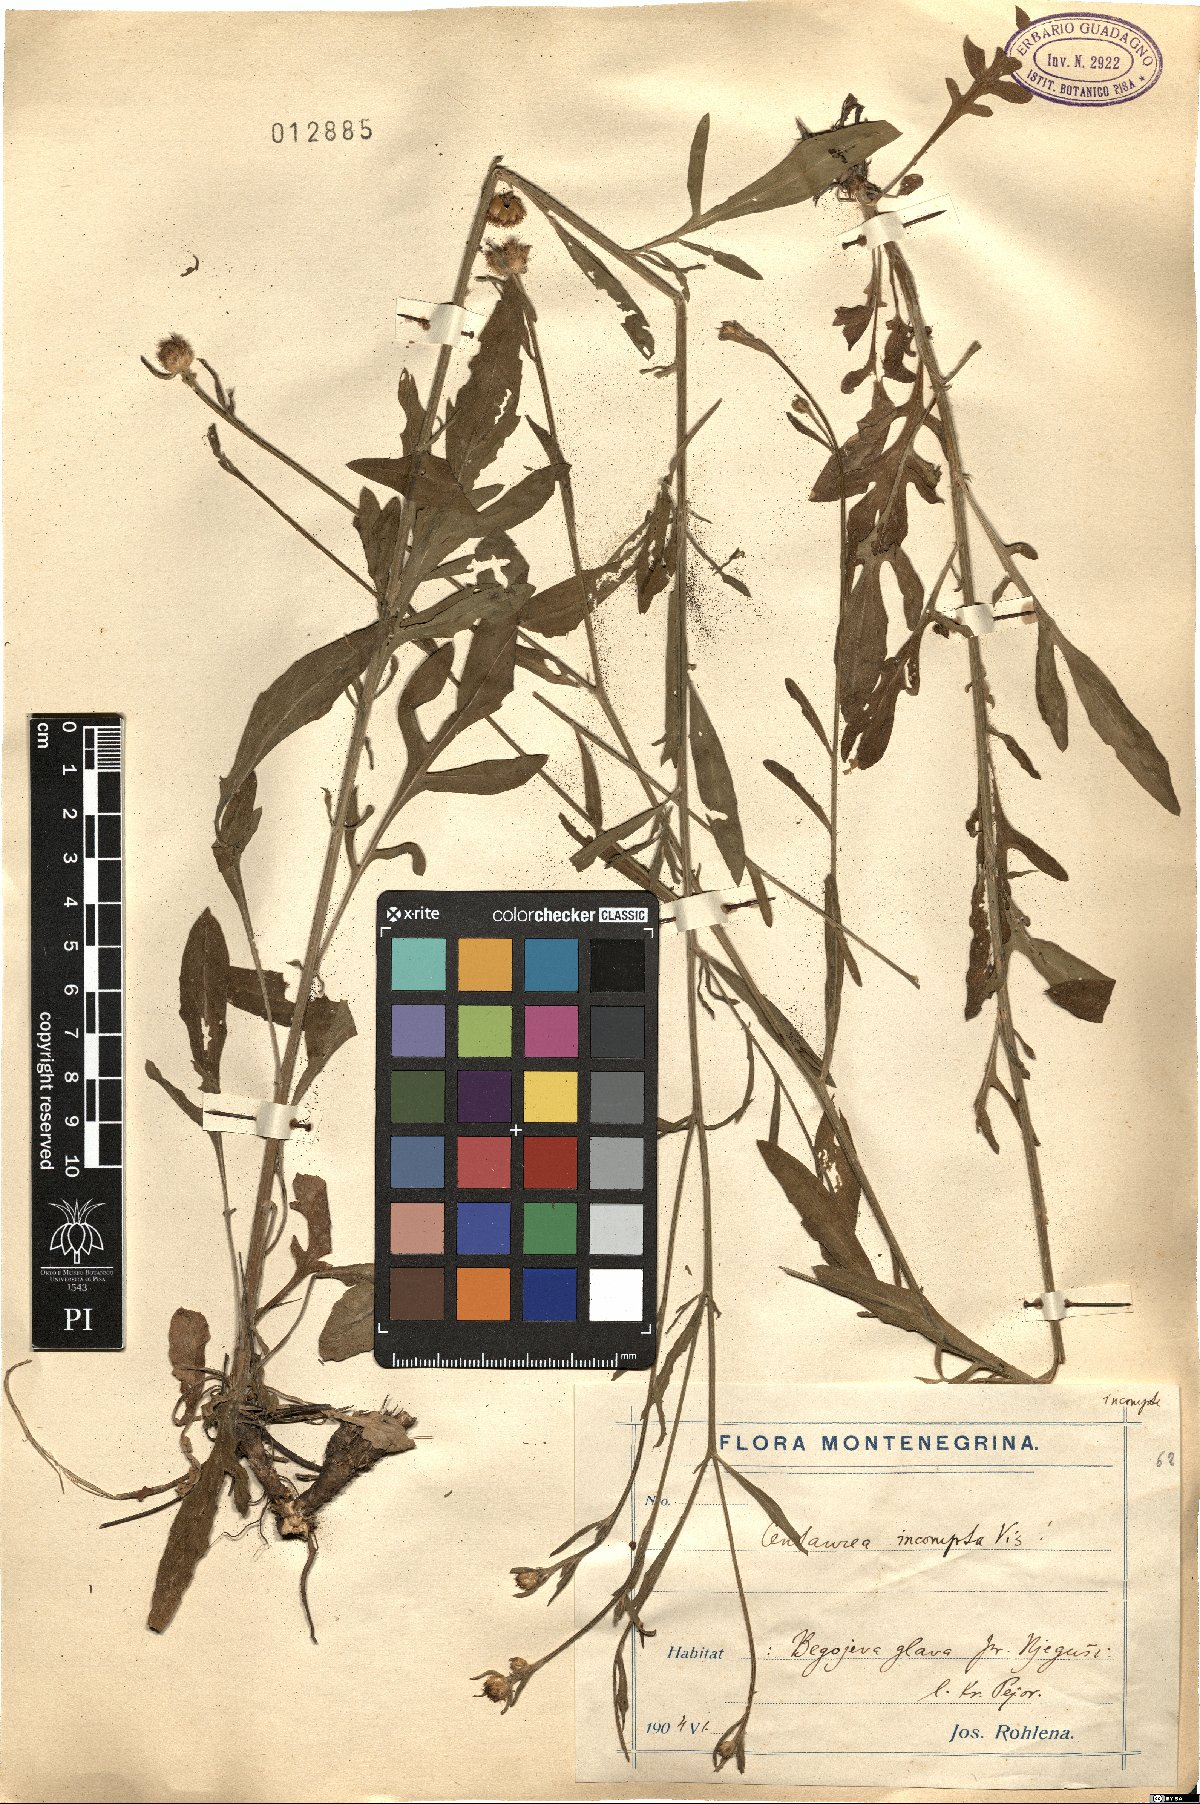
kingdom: Plantae
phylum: Tracheophyta
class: Magnoliopsida
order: Asterales
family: Asteraceae
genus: Centaurea
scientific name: Centaurea incompta
